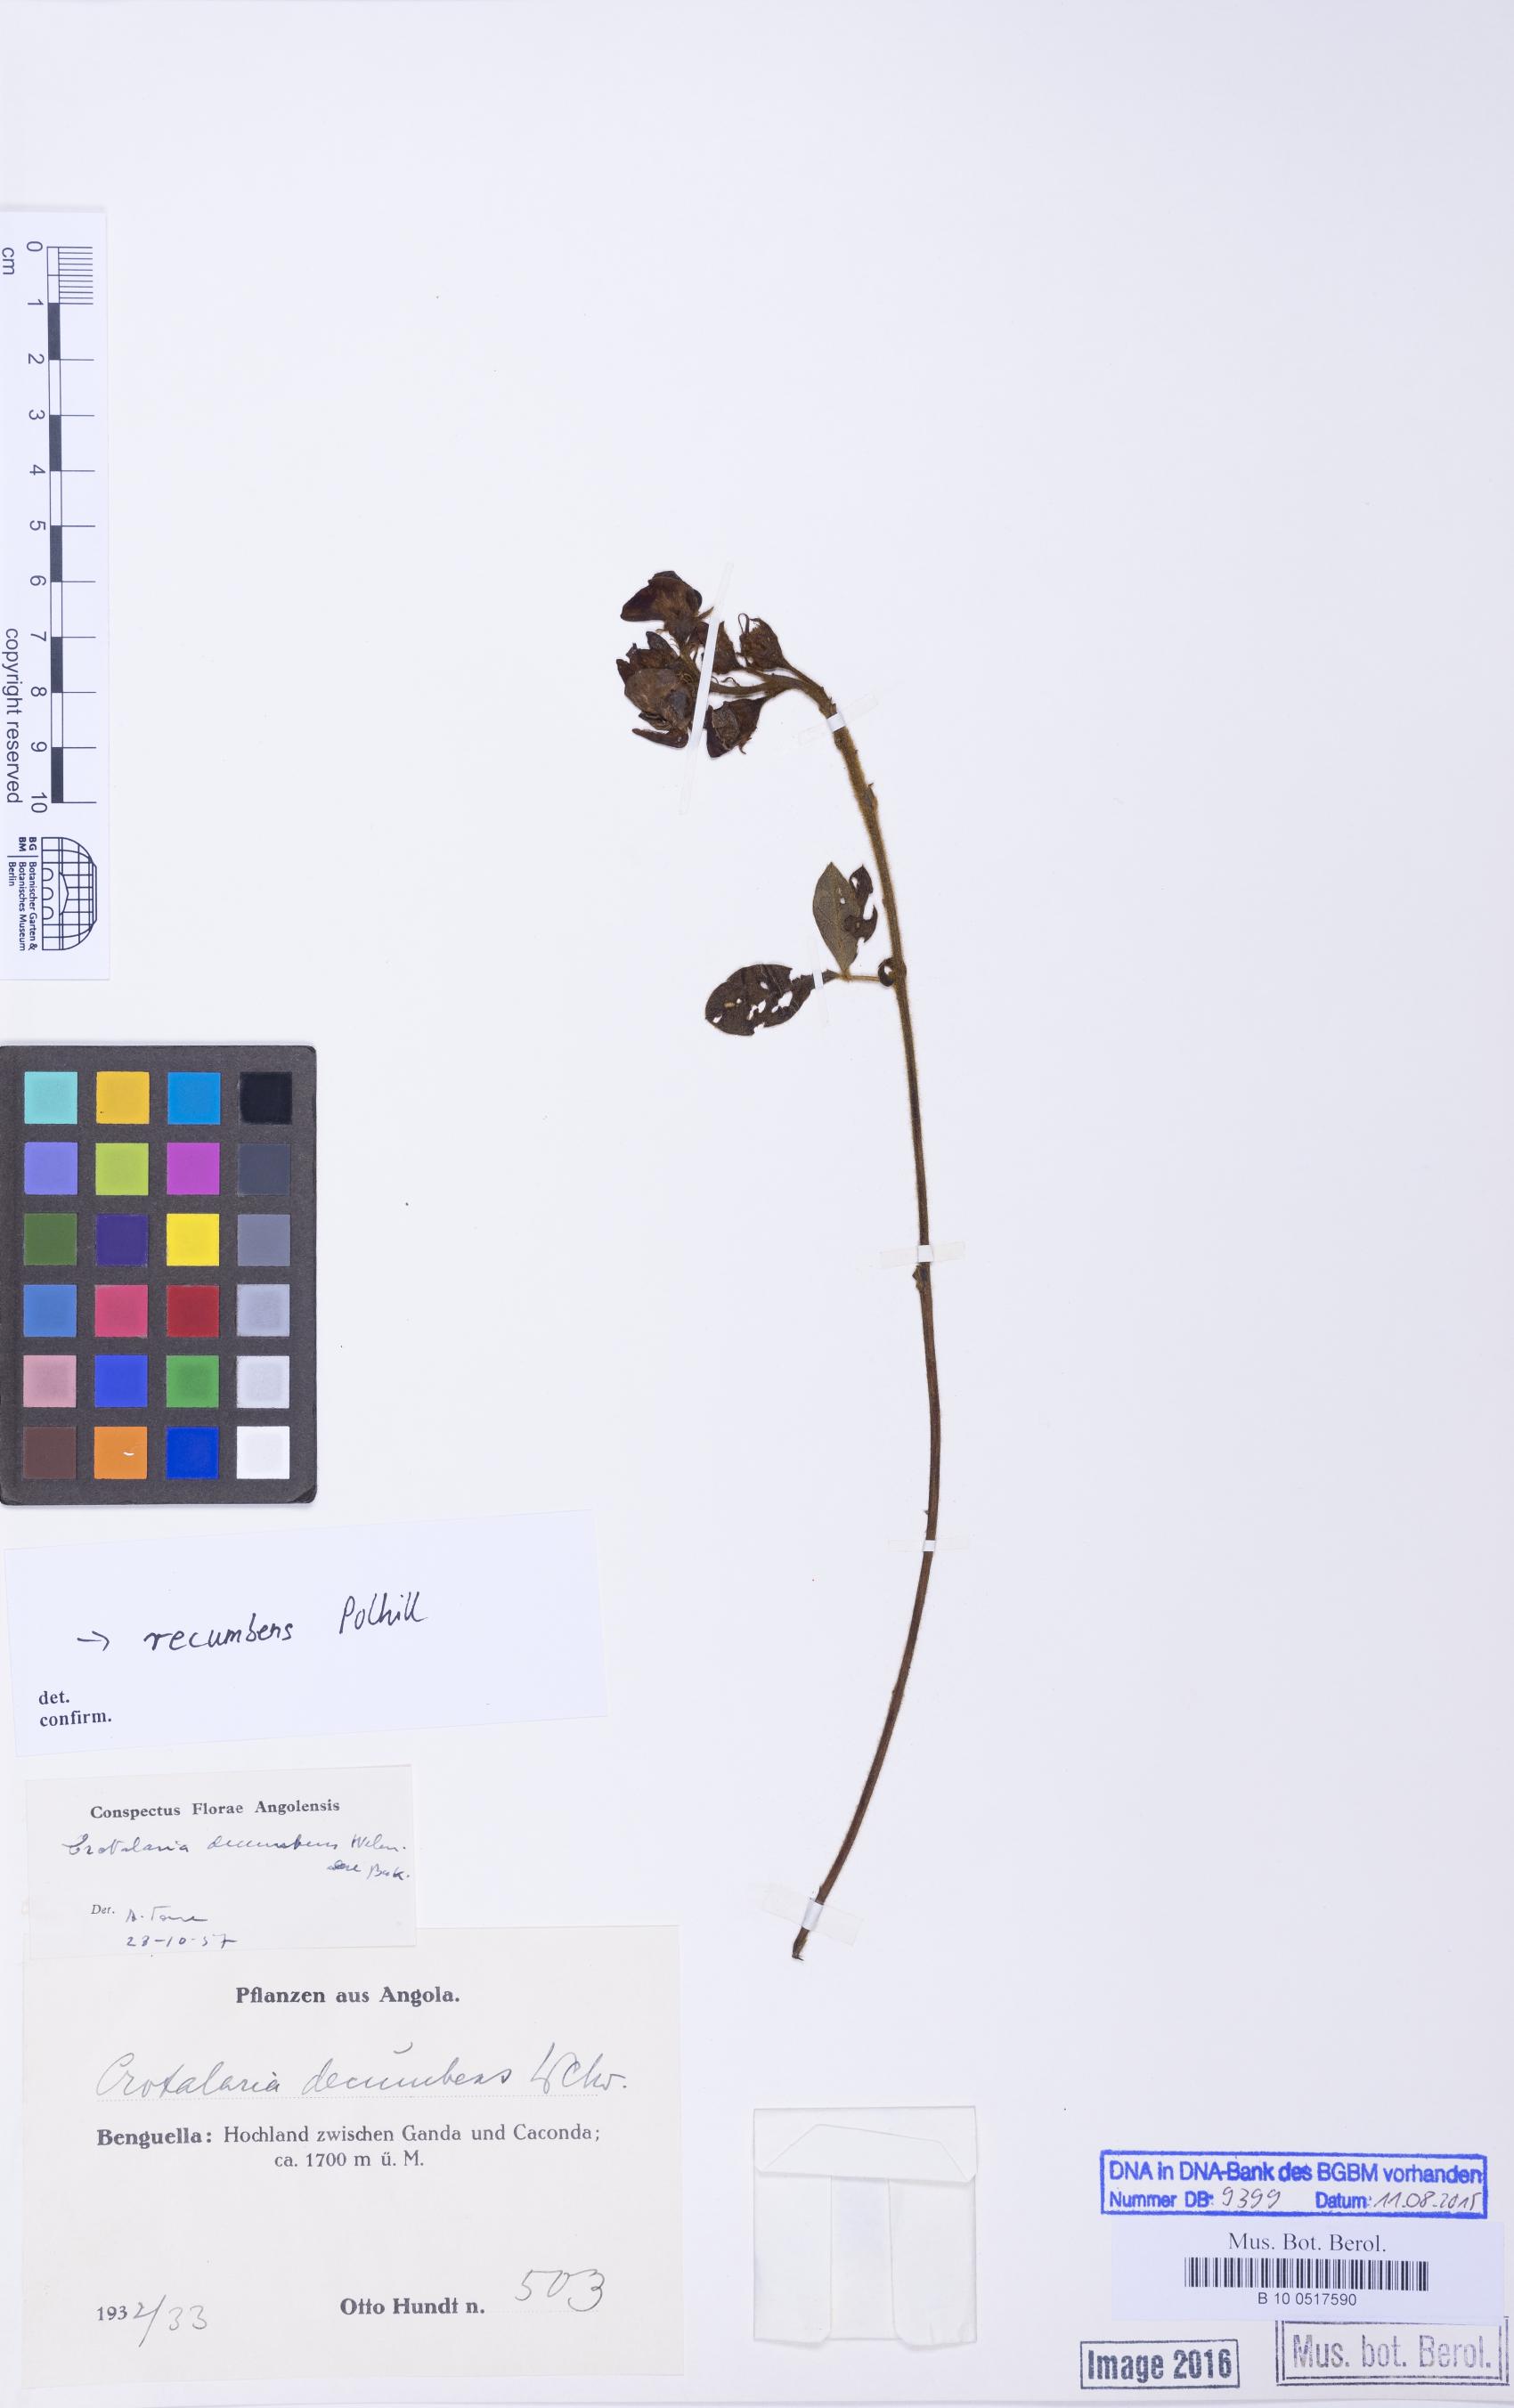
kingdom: Plantae
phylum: Tracheophyta
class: Magnoliopsida
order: Fabales
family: Fabaceae
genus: Crotalaria
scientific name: Crotalaria recumbens
